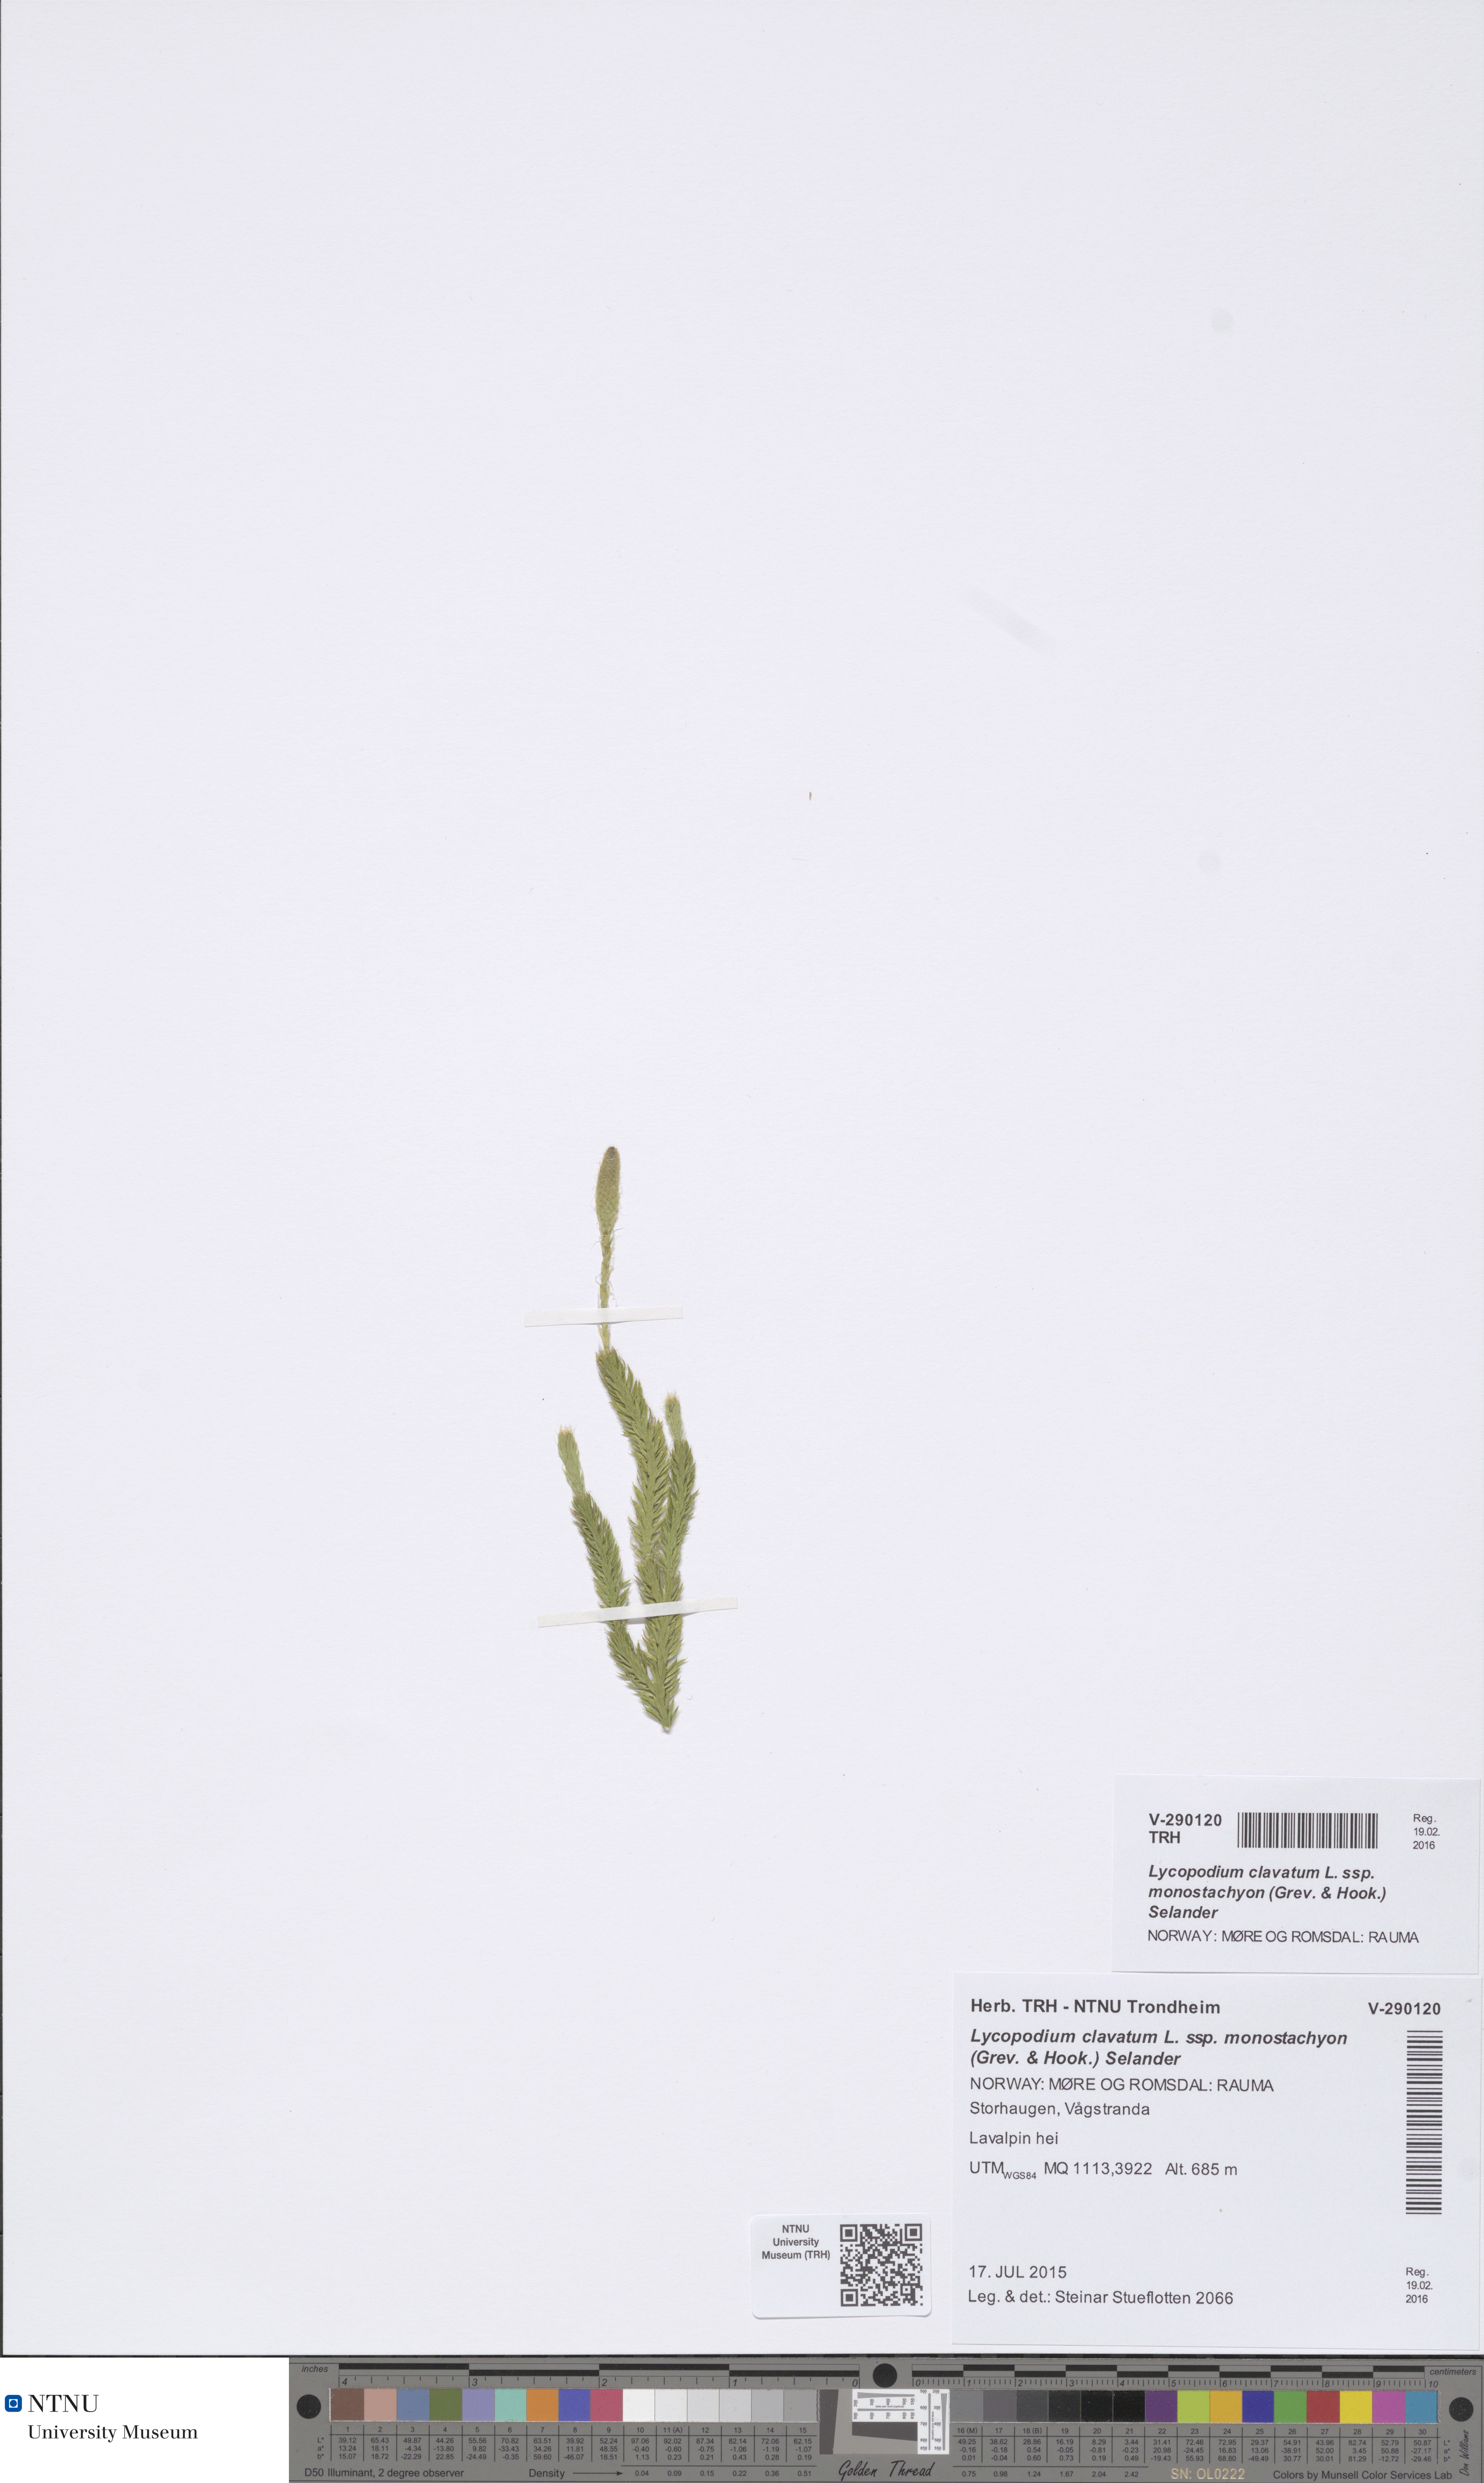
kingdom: Plantae
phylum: Tracheophyta
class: Lycopodiopsida
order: Lycopodiales
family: Lycopodiaceae
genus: Lycopodium
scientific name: Lycopodium lagopus
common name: One-cone clubmoss
